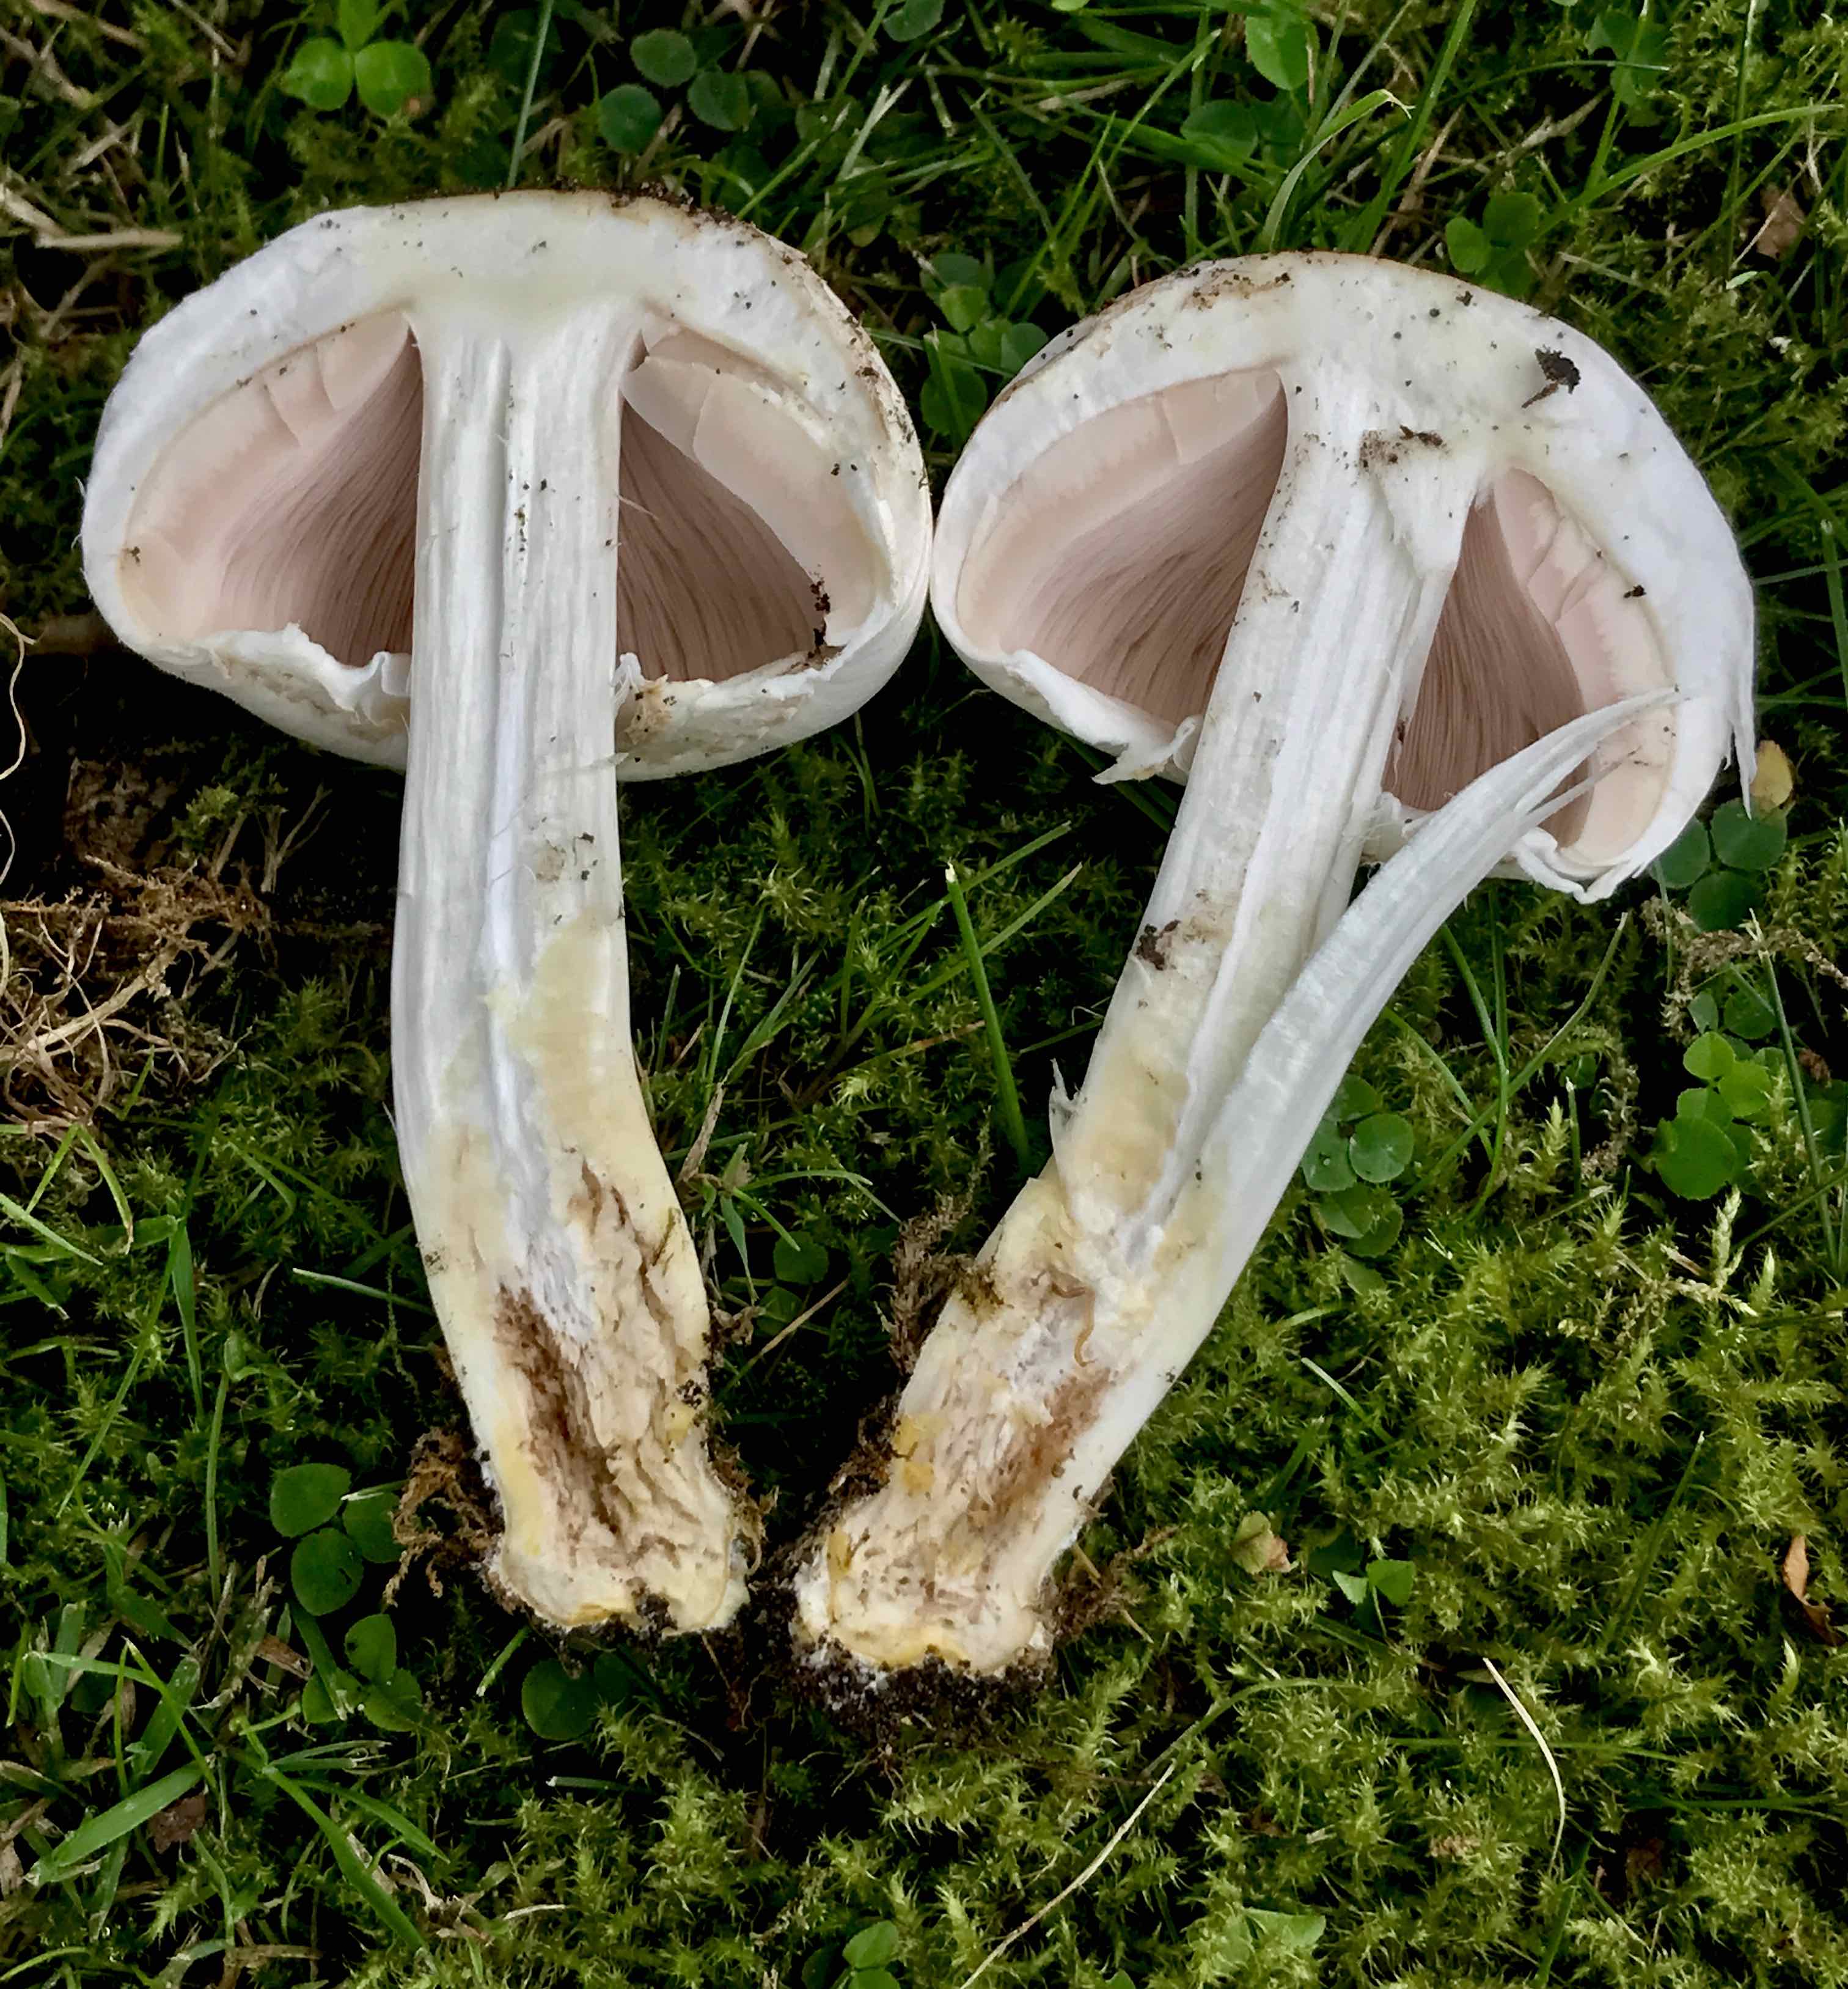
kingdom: Fungi
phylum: Basidiomycota
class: Agaricomycetes
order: Agaricales
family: Agaricaceae
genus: Agaricus
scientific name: Agaricus xanthodermus
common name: karbol-champignon
